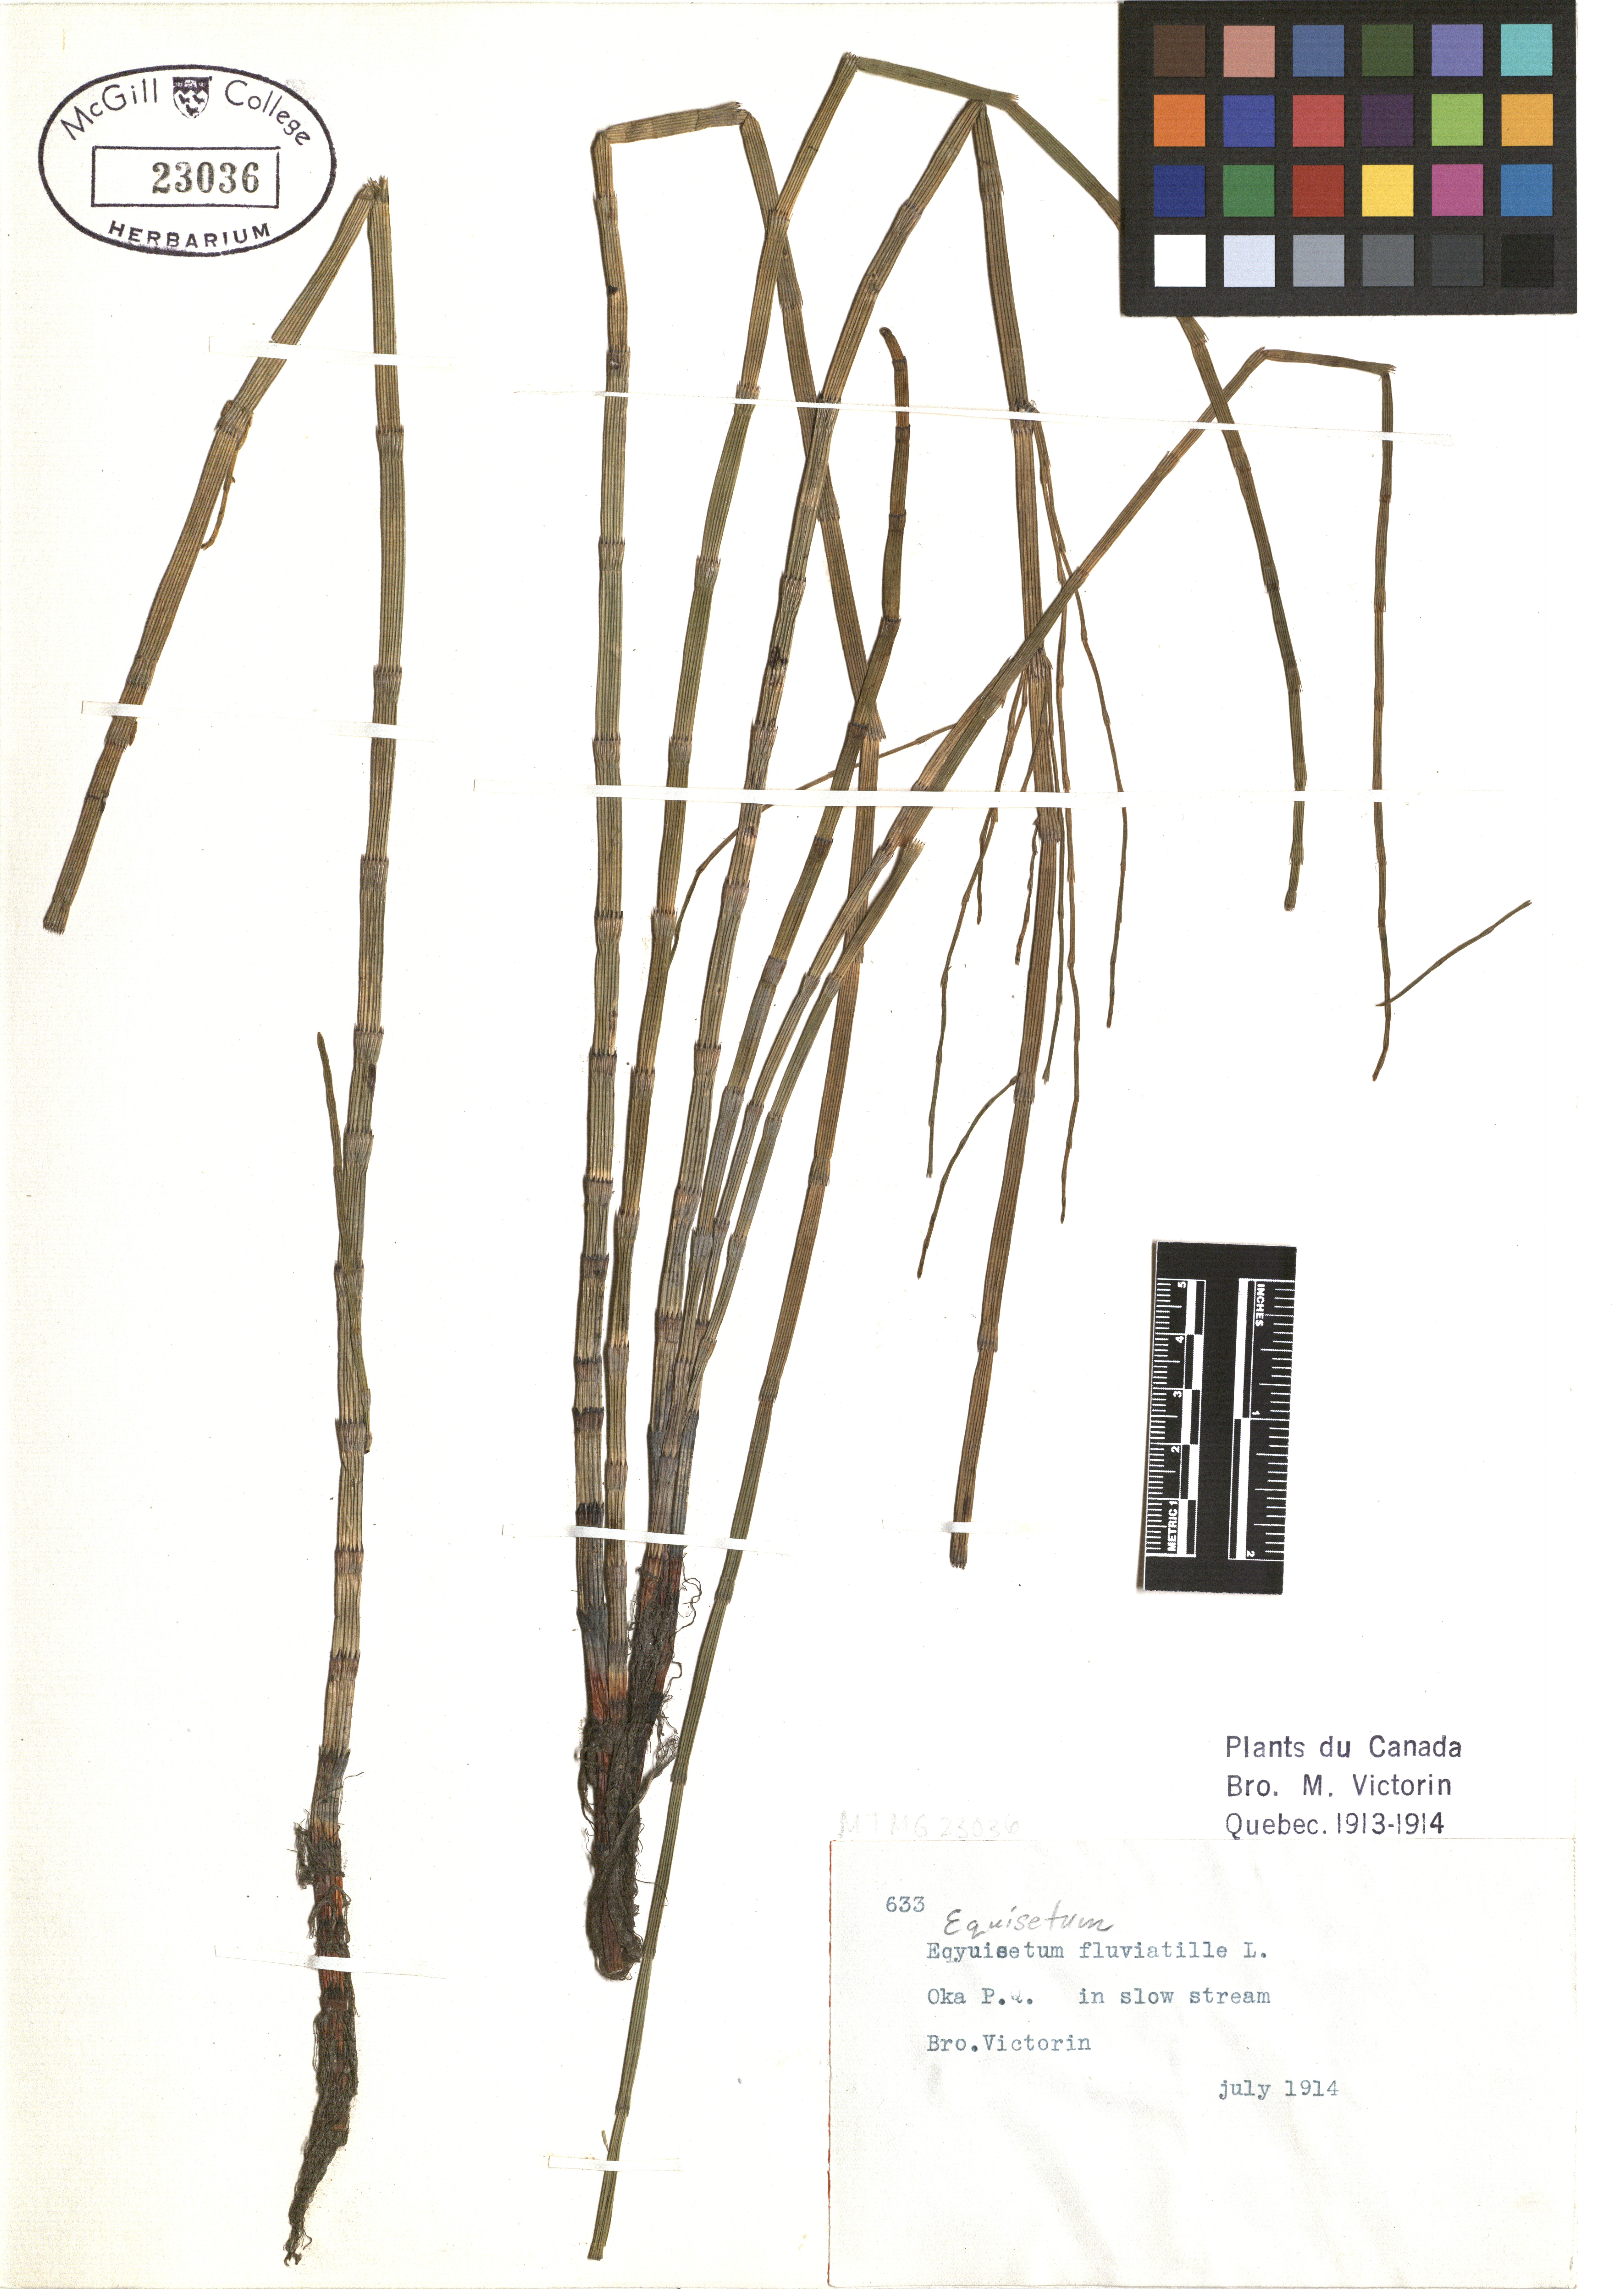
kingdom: Plantae
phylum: Tracheophyta
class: Polypodiopsida
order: Equisetales
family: Equisetaceae
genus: Equisetum
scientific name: Equisetum fluviatile
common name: Water horsetail
